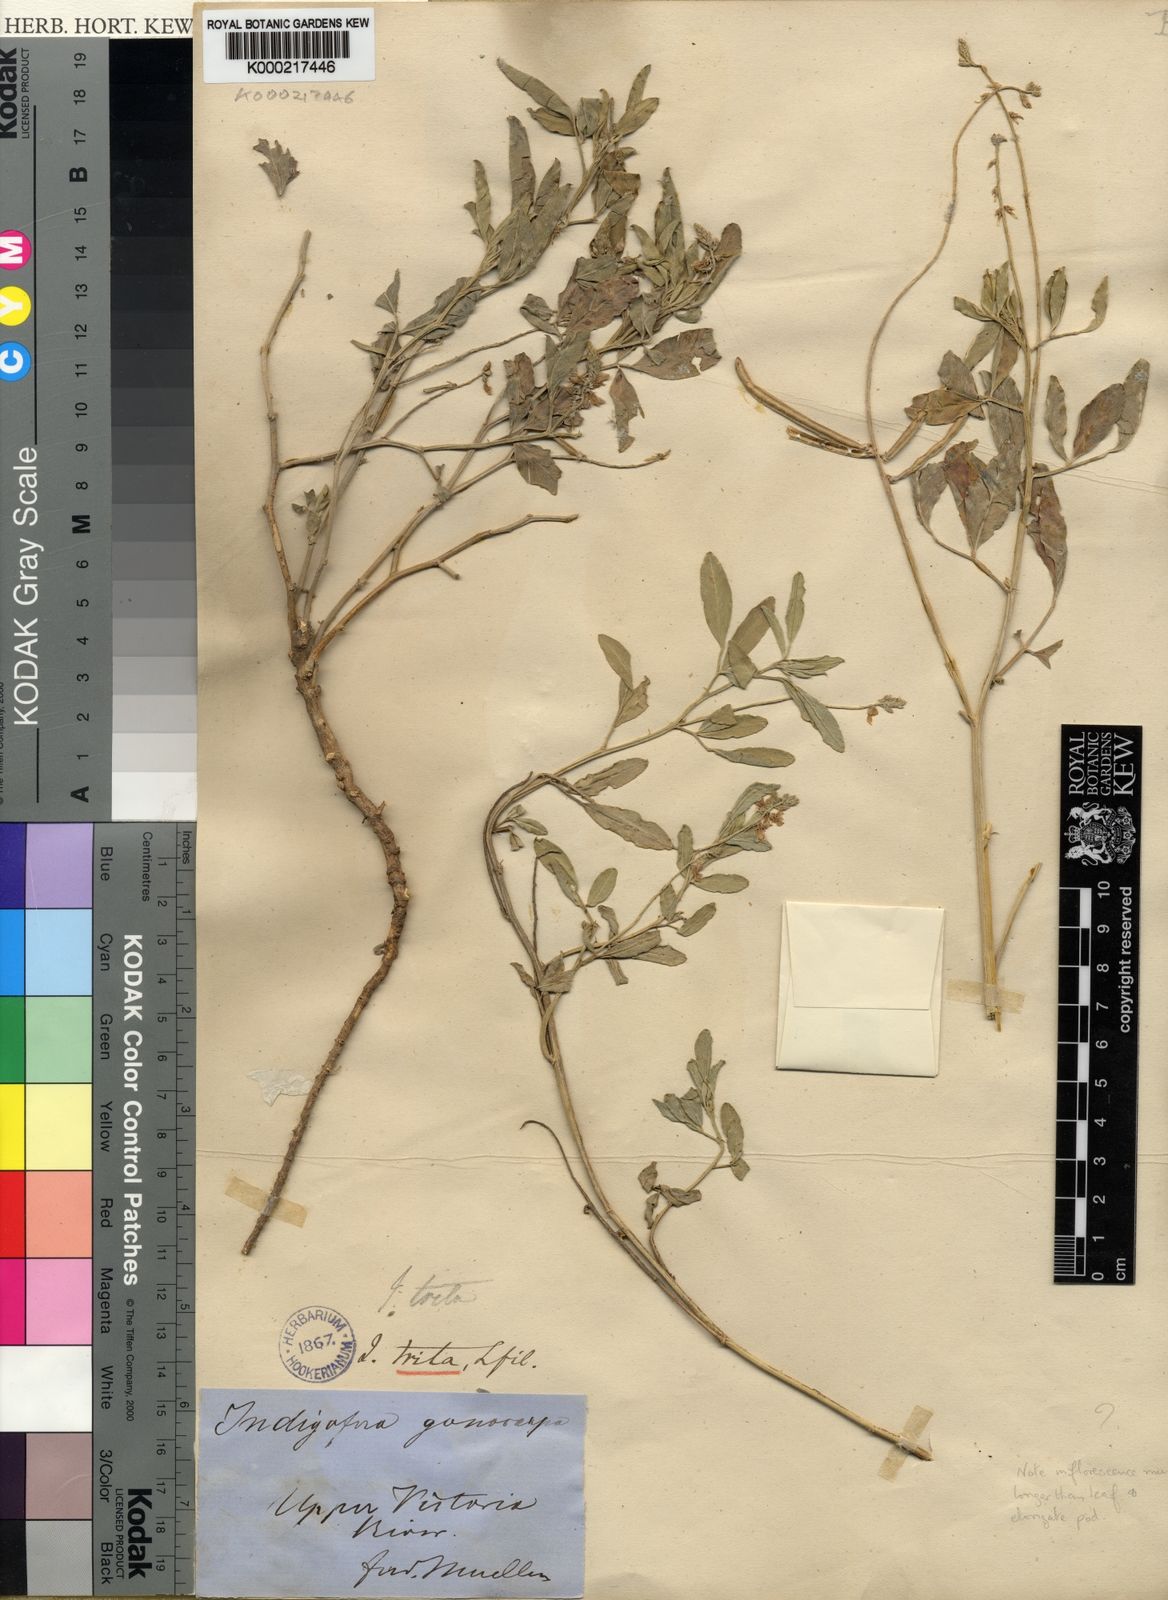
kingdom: Plantae
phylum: Tracheophyta
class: Magnoliopsida
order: Fabales
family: Fabaceae
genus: Indigofera
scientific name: Indigofera trita
